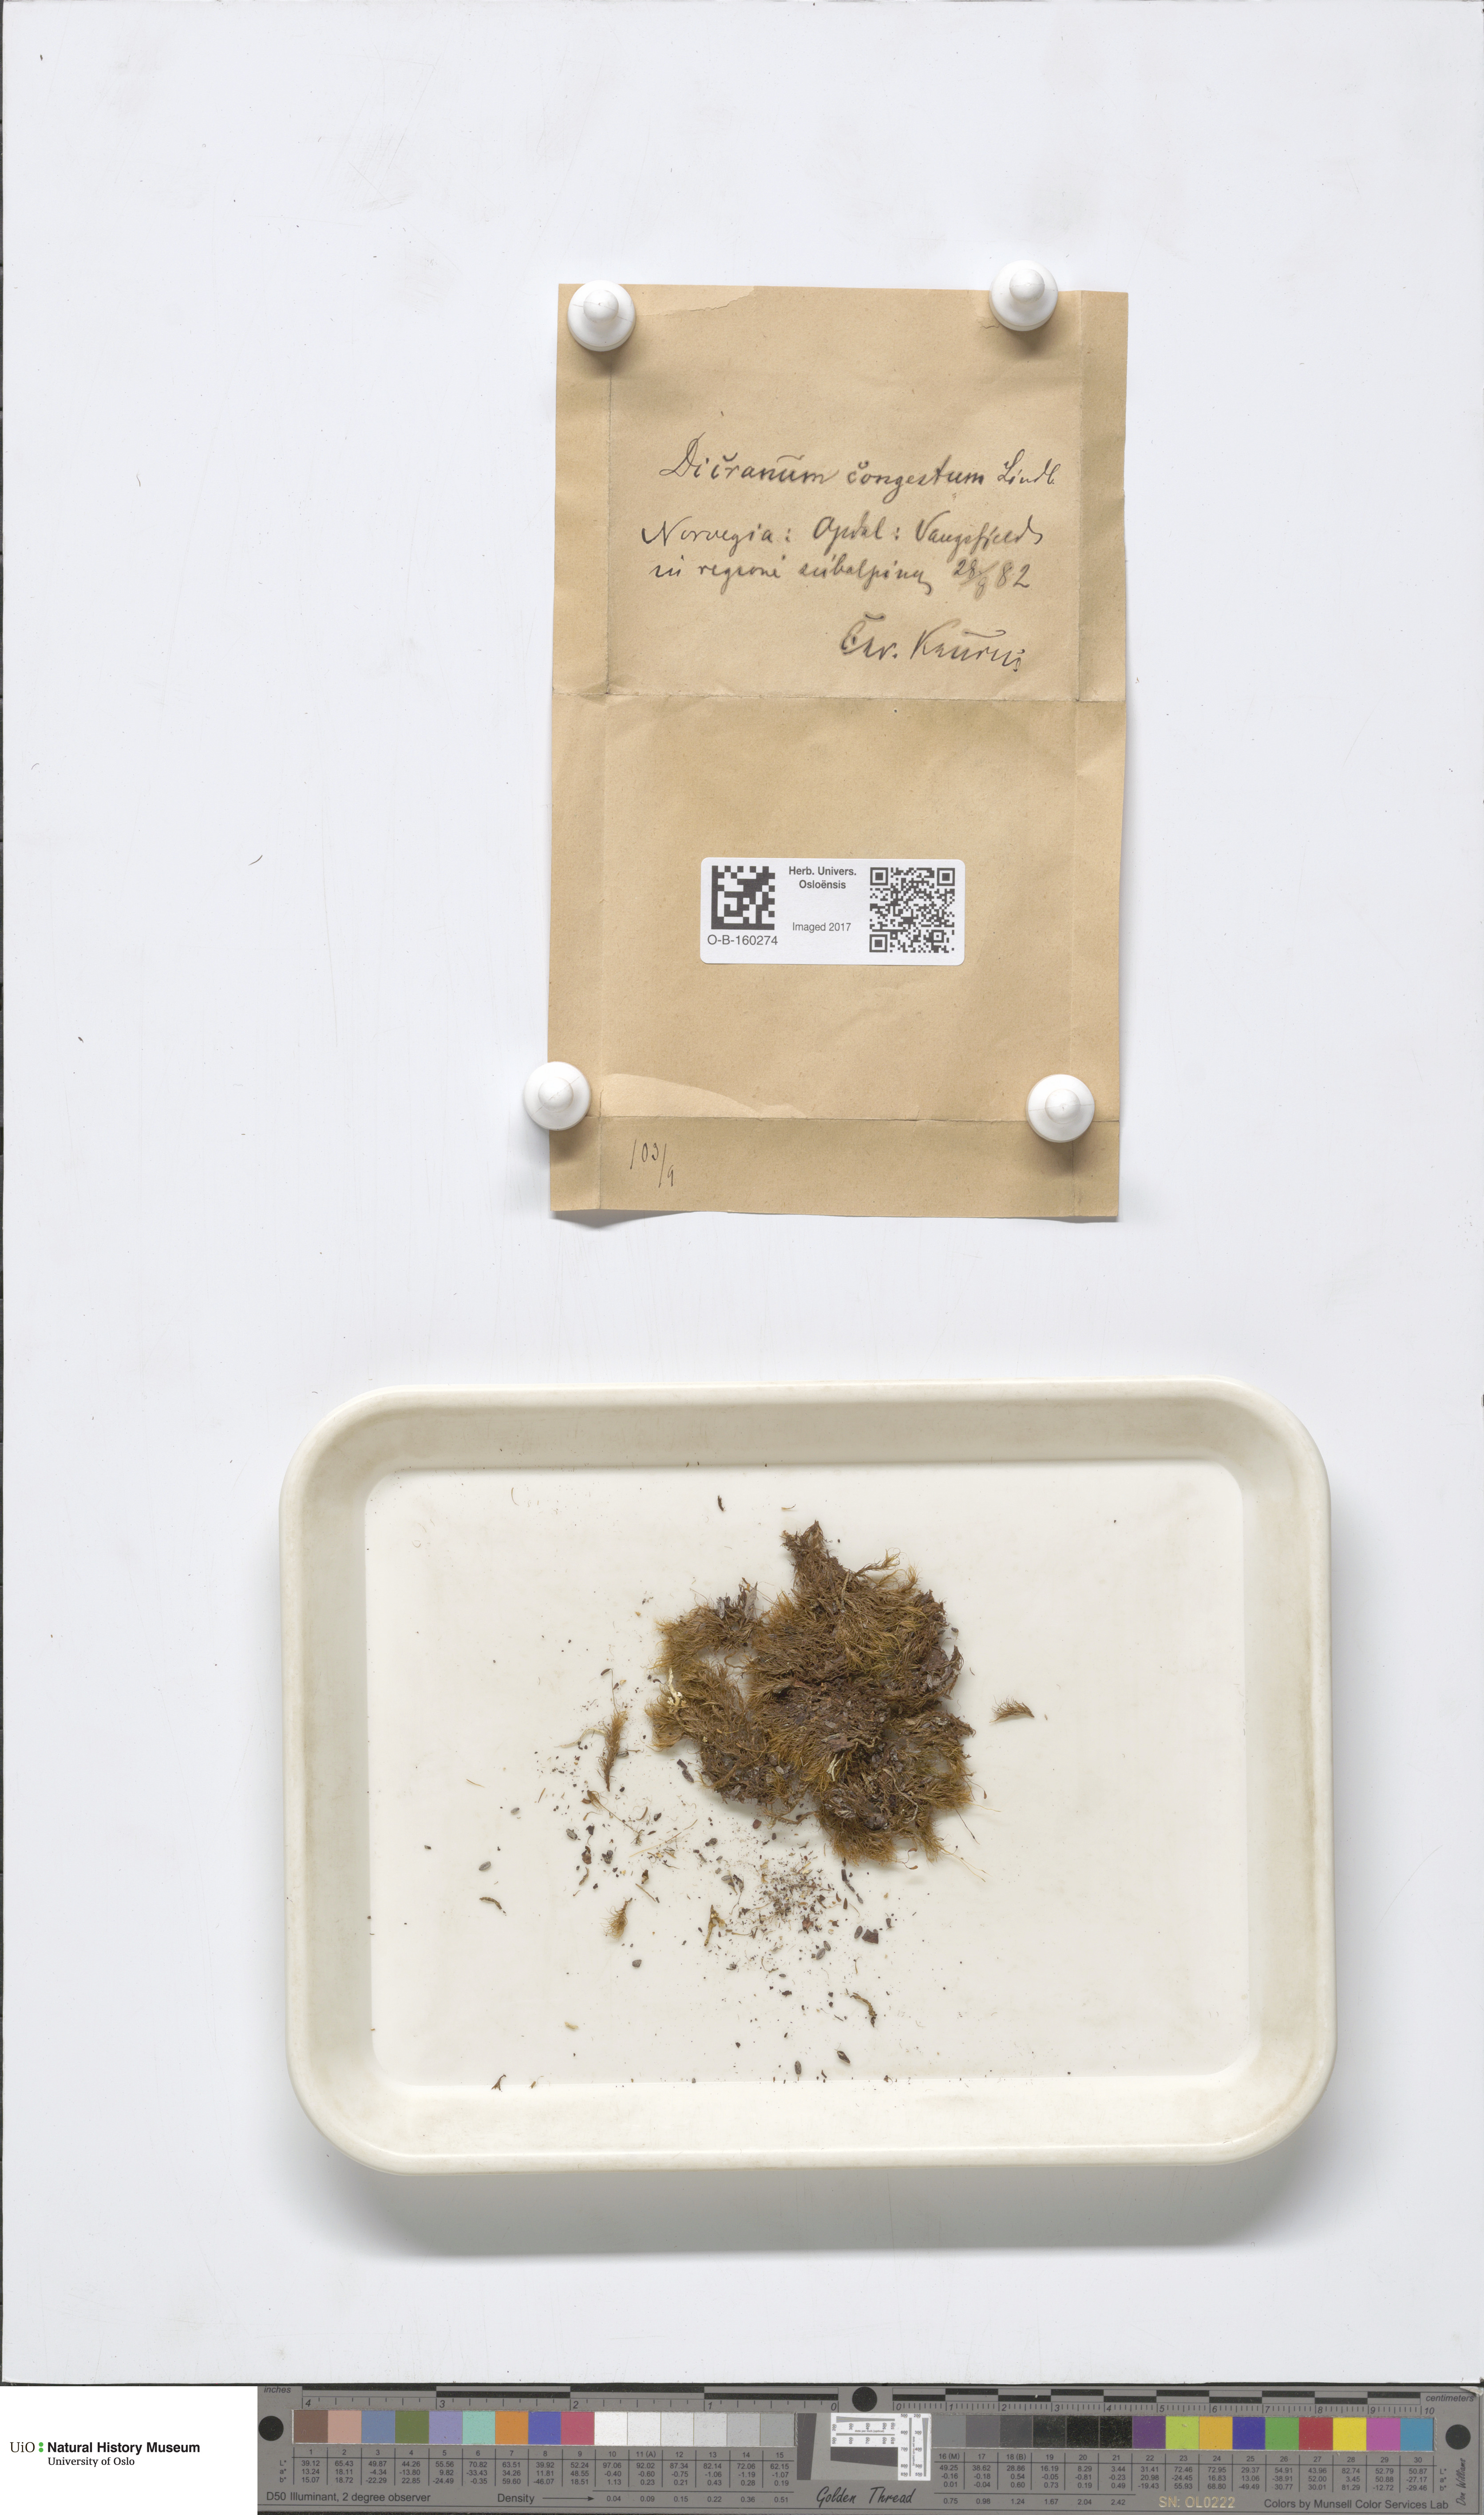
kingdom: Plantae
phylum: Bryophyta
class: Bryopsida
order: Dicranales
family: Dicranaceae
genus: Dicranum
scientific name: Dicranum flexicaule
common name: Bendy heron s-bill moss
